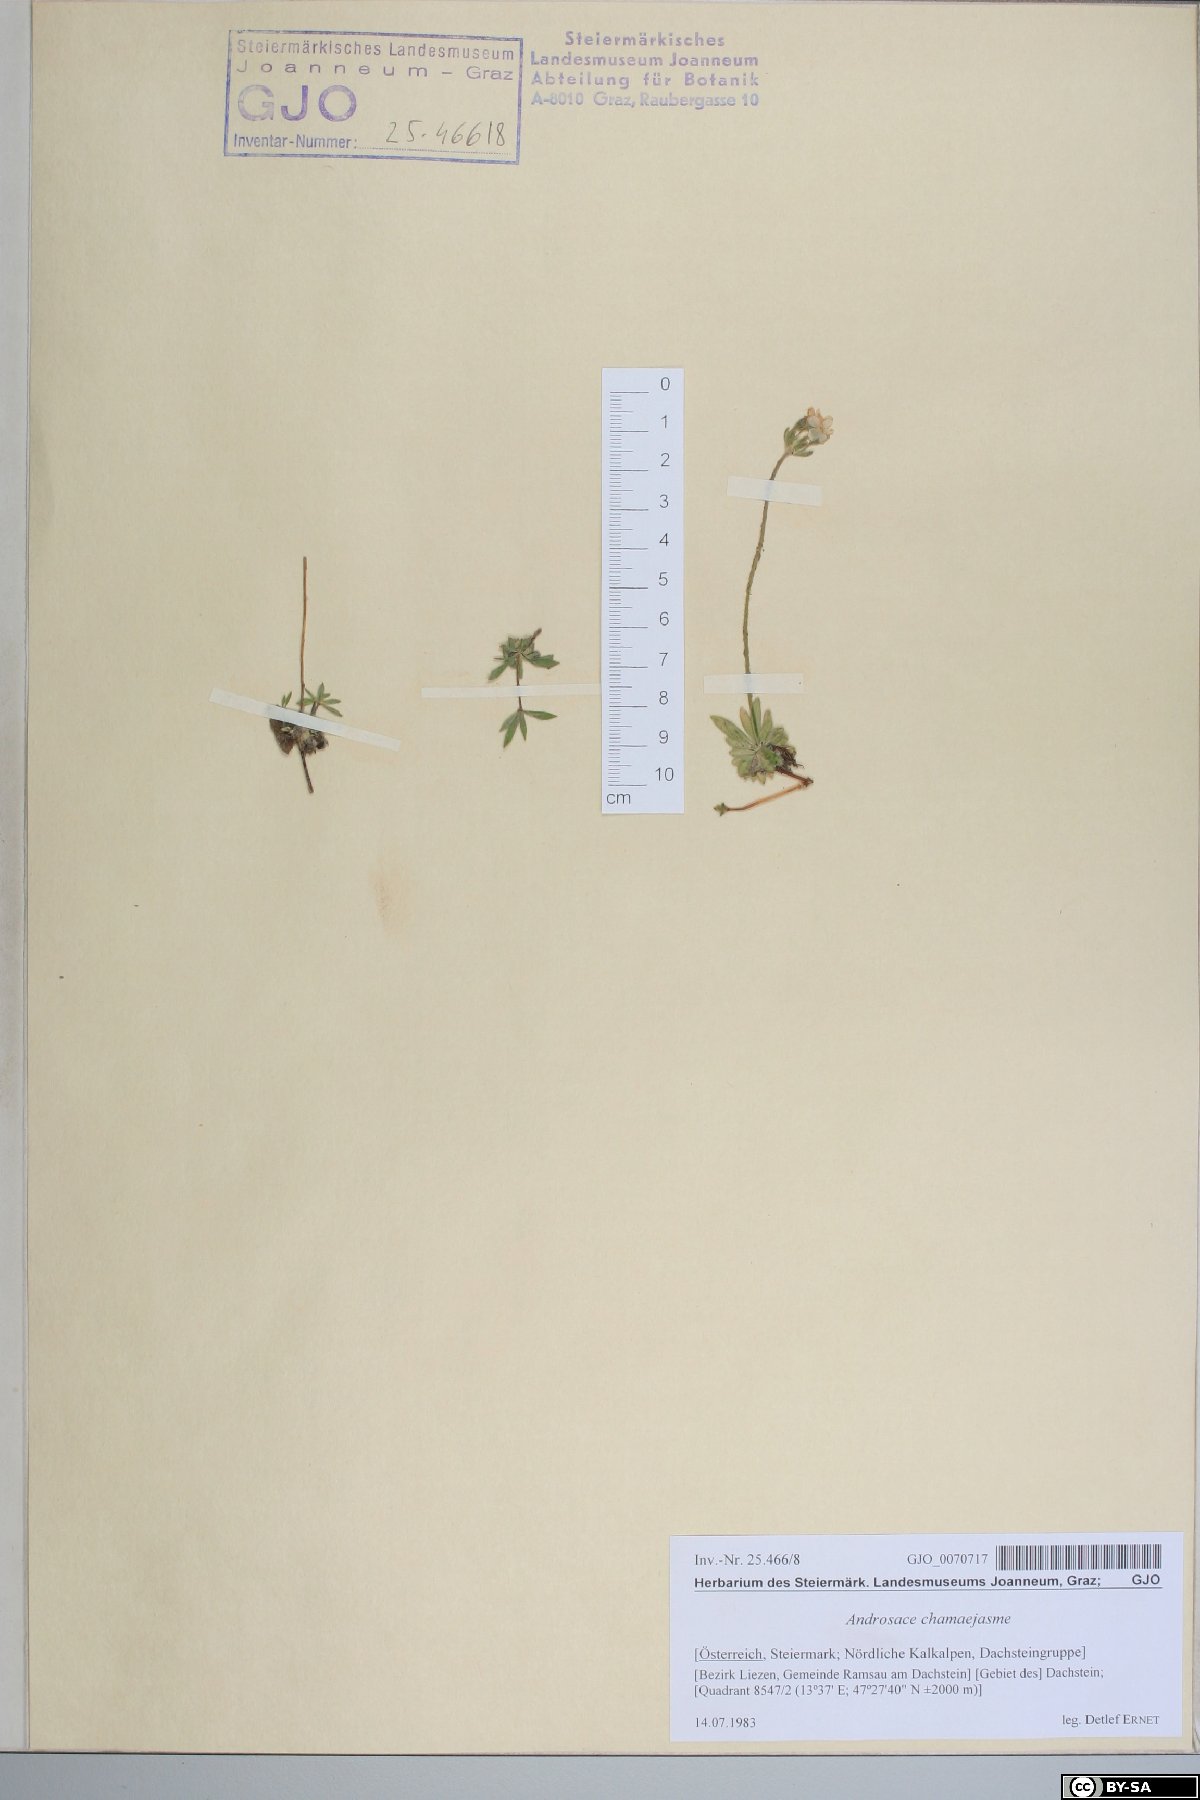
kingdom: Plantae
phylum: Tracheophyta
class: Magnoliopsida
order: Ericales
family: Primulaceae
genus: Androsace
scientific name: Androsace chamaejasme
